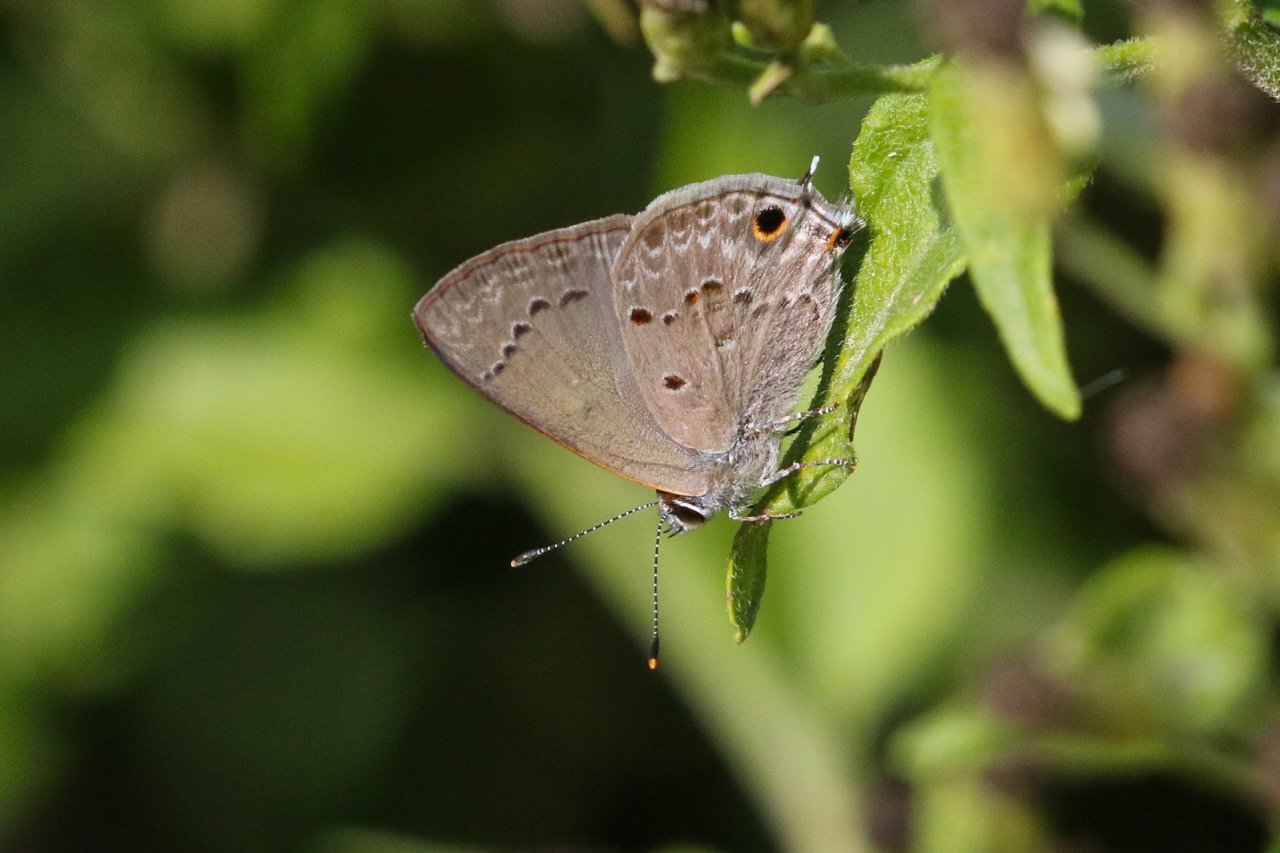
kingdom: Animalia
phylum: Arthropoda
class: Insecta
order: Lepidoptera
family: Lycaenidae
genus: Callicista
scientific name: Callicista columella
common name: Mallow Scrub-Hairstreak
